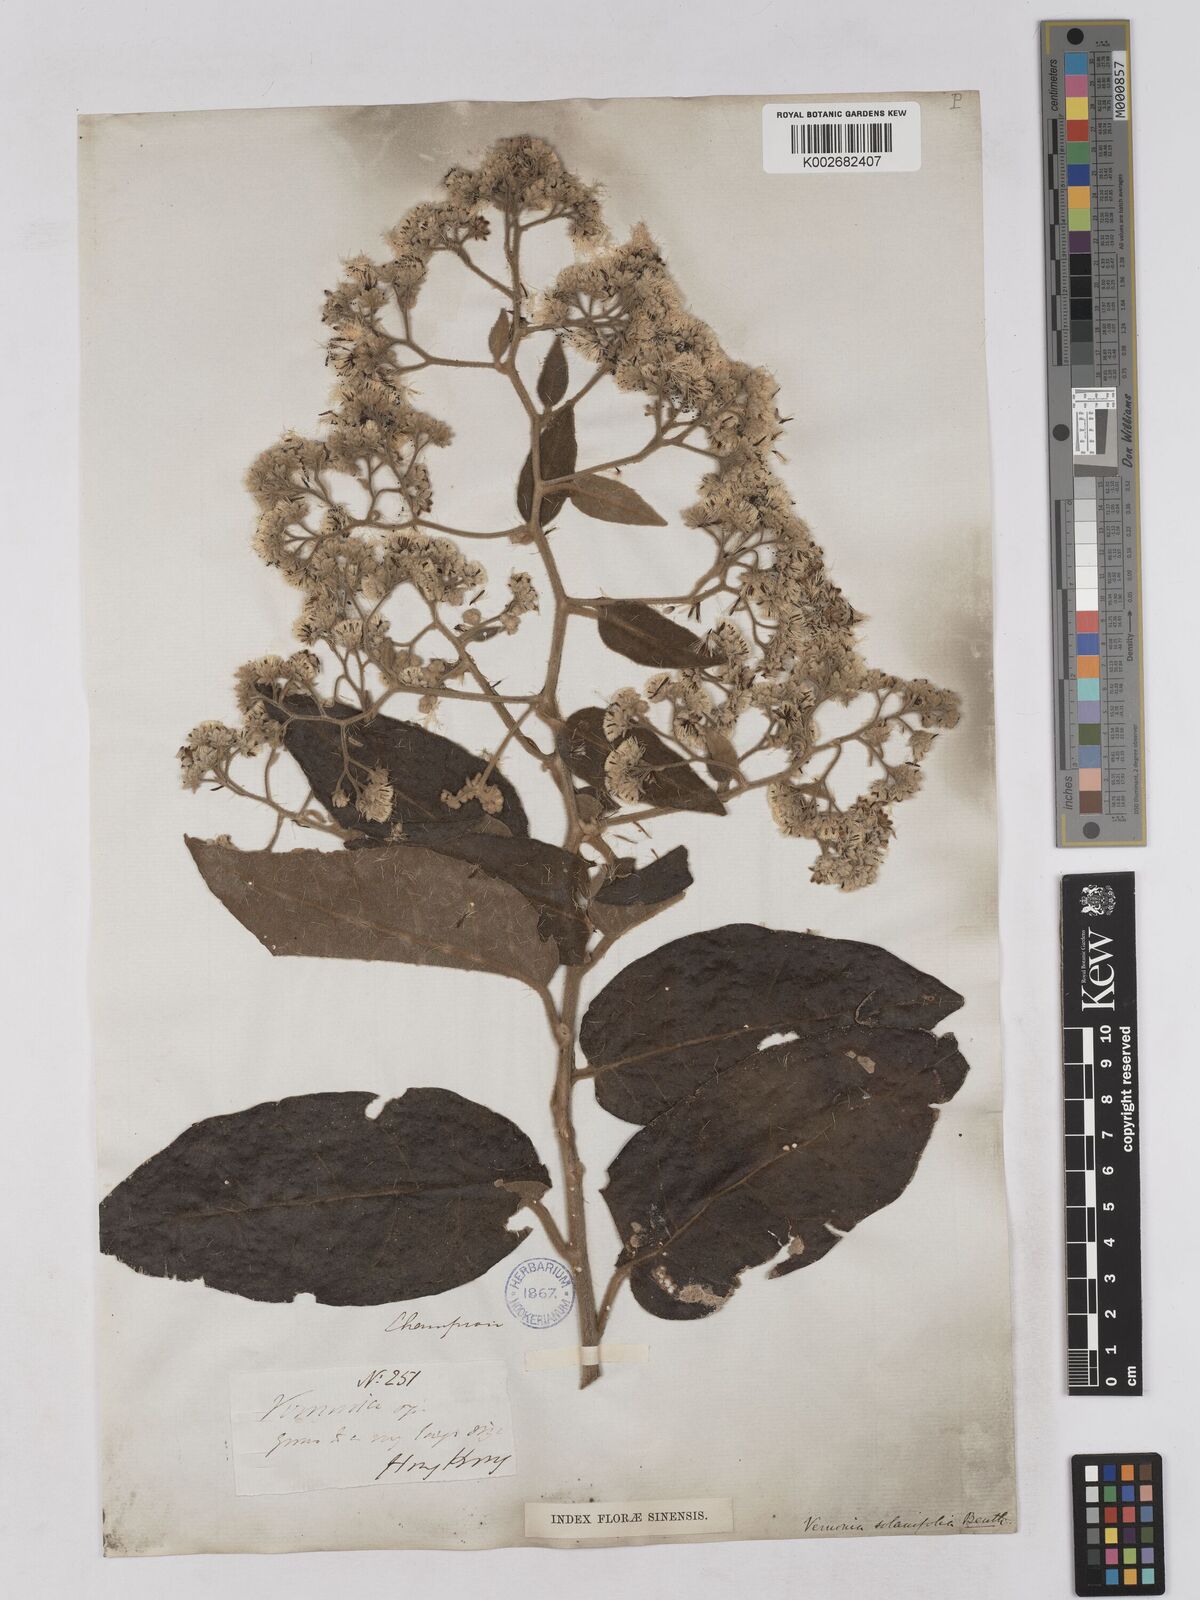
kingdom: Plantae
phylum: Tracheophyta
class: Magnoliopsida
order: Asterales
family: Asteraceae
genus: Strobocalyx
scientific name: Strobocalyx solanifolia
